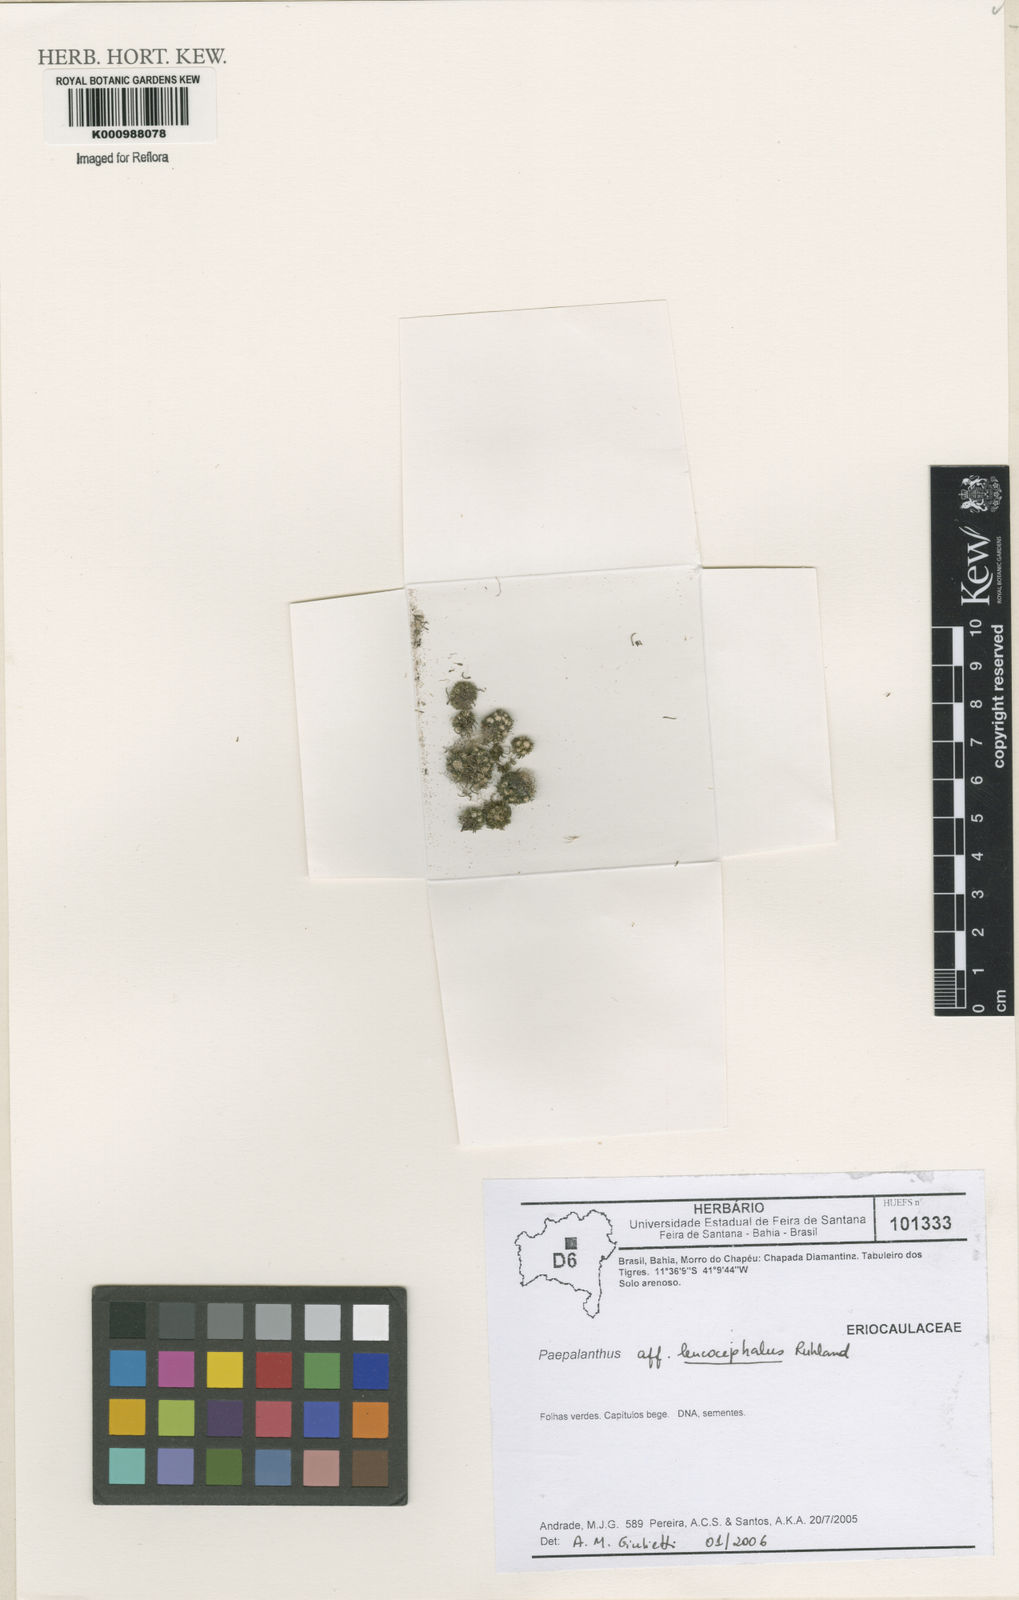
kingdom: Plantae
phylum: Tracheophyta
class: Liliopsida
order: Poales
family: Eriocaulaceae
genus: Paepalanthus
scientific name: Paepalanthus leucocephalus
